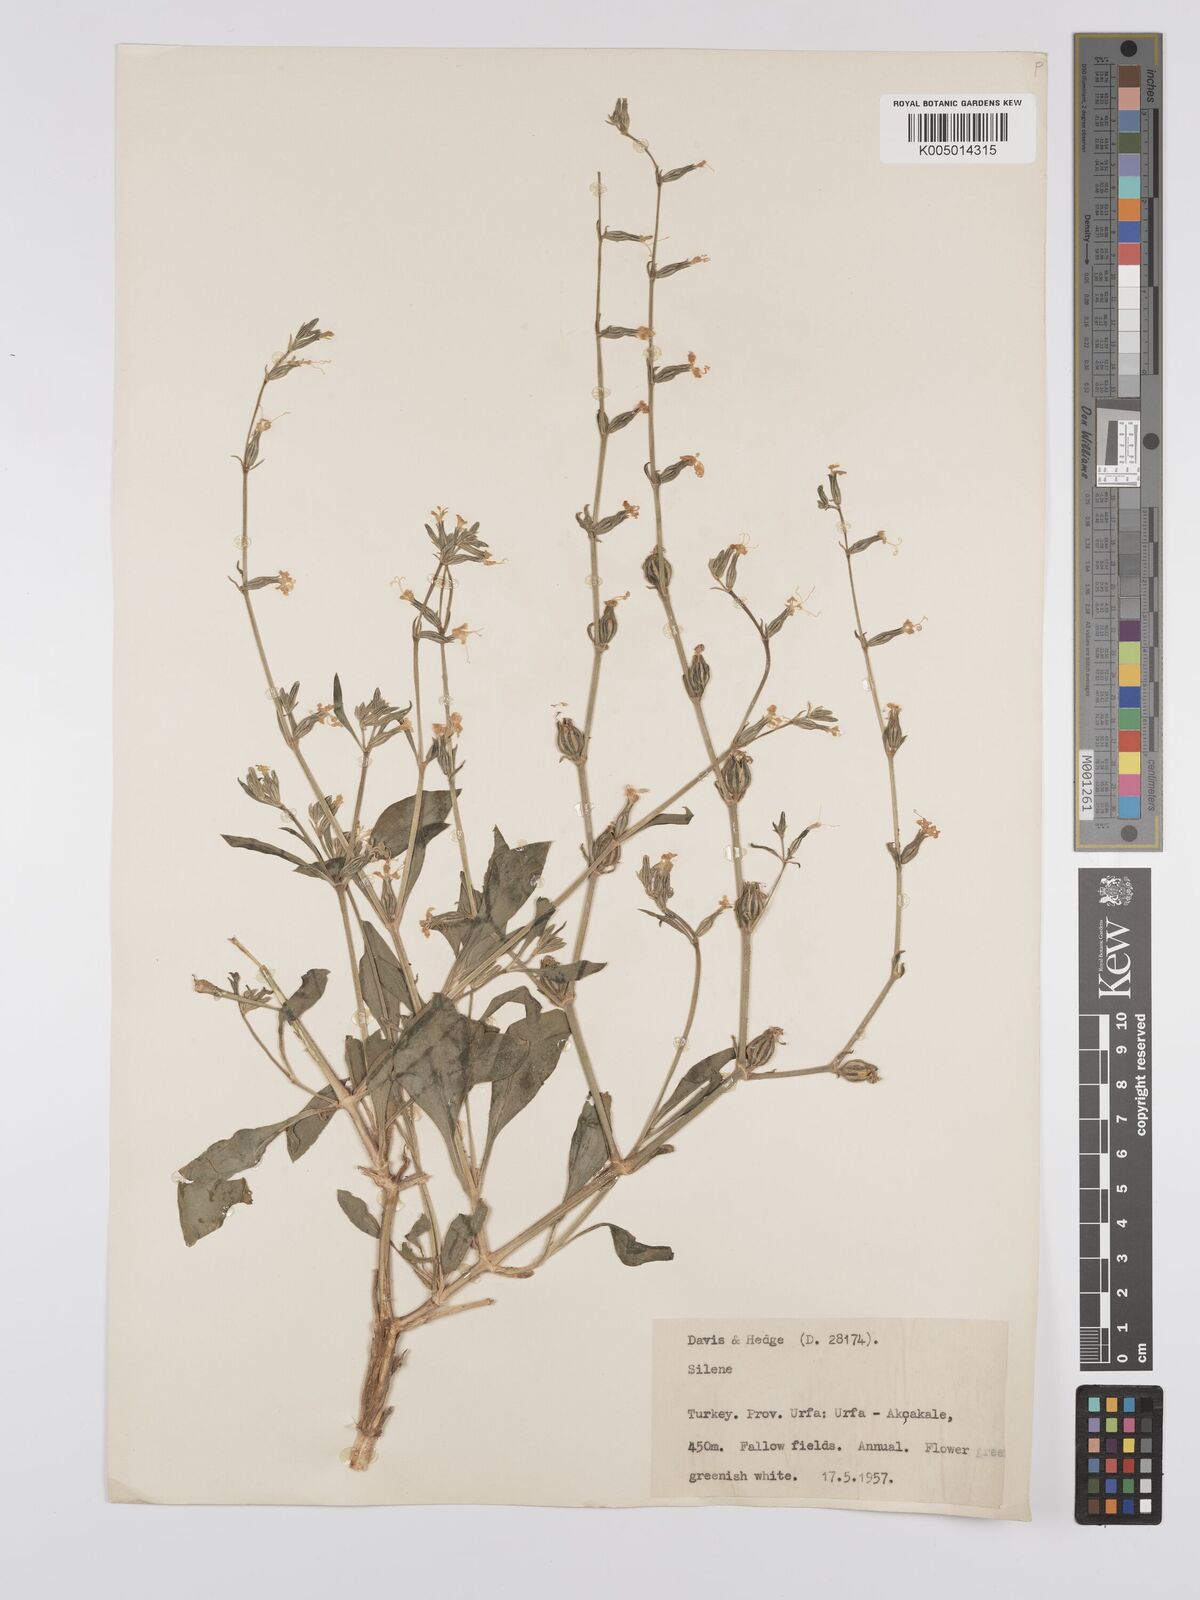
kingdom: Plantae
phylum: Tracheophyta
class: Magnoliopsida
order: Caryophyllales
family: Caryophyllaceae
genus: Silene
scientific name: Silene
